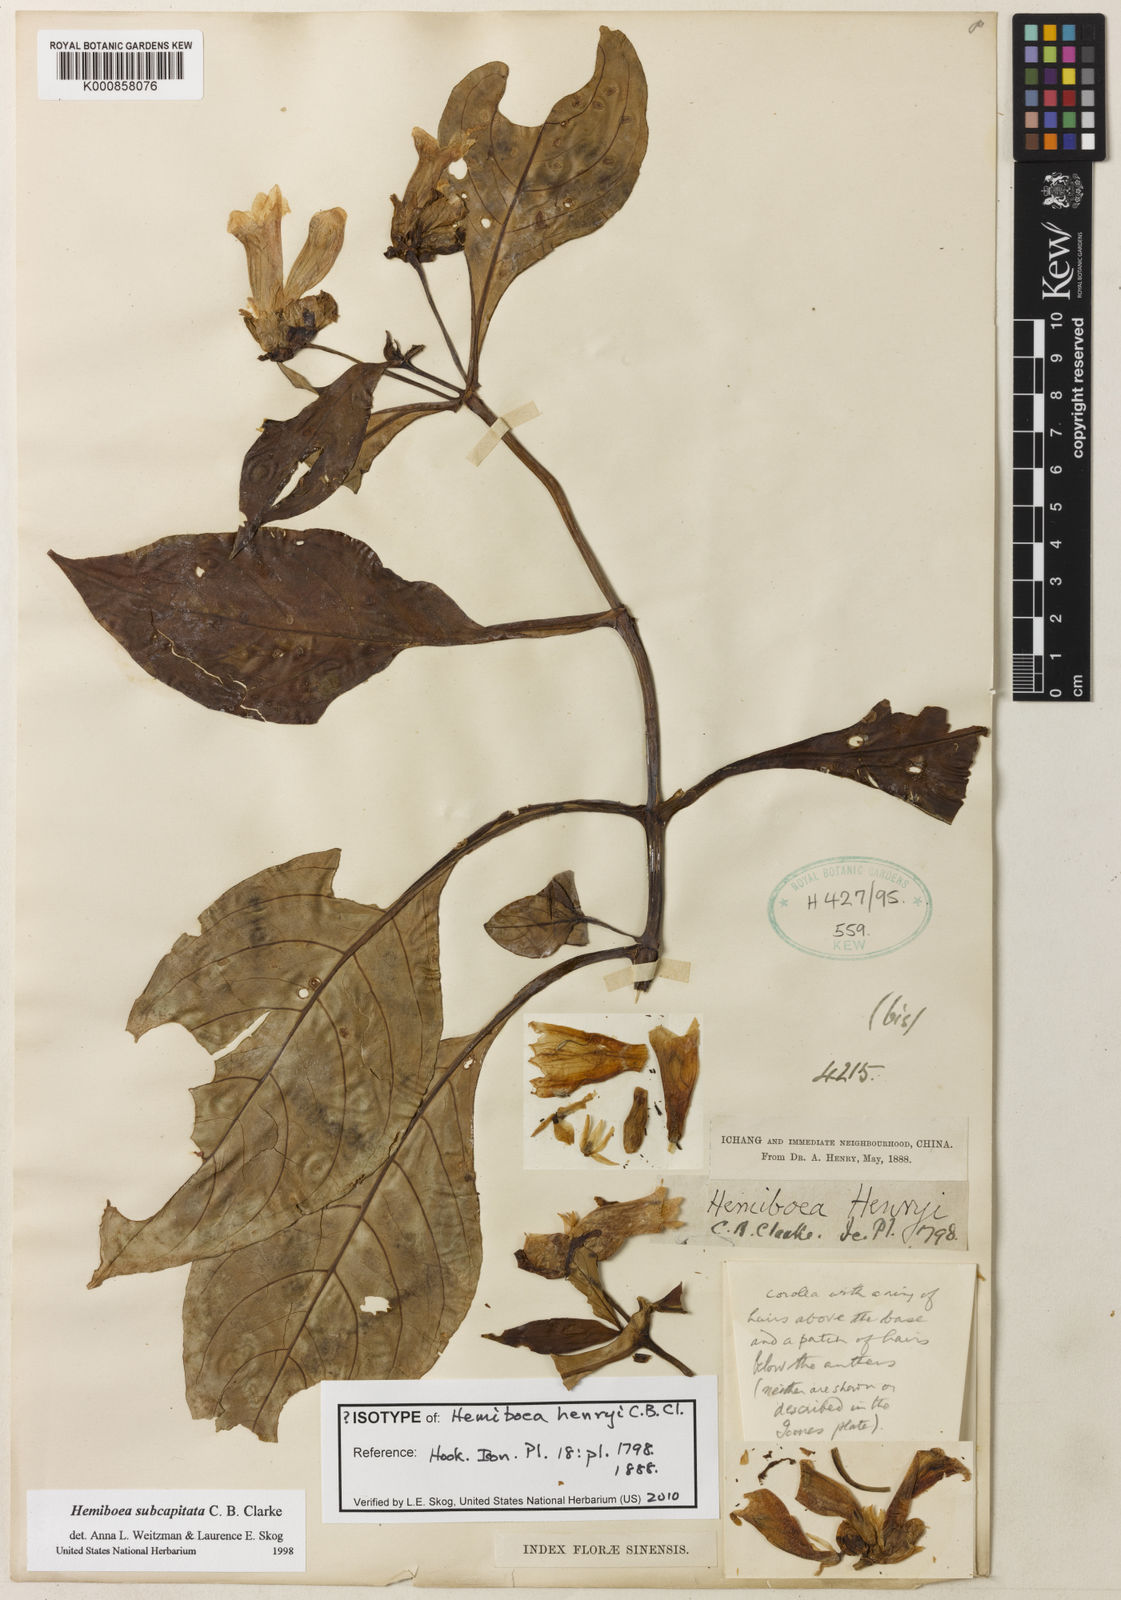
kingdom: Plantae
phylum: Tracheophyta
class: Magnoliopsida
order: Lamiales
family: Gesneriaceae
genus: Hemiboea
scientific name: Hemiboea subcapitata
